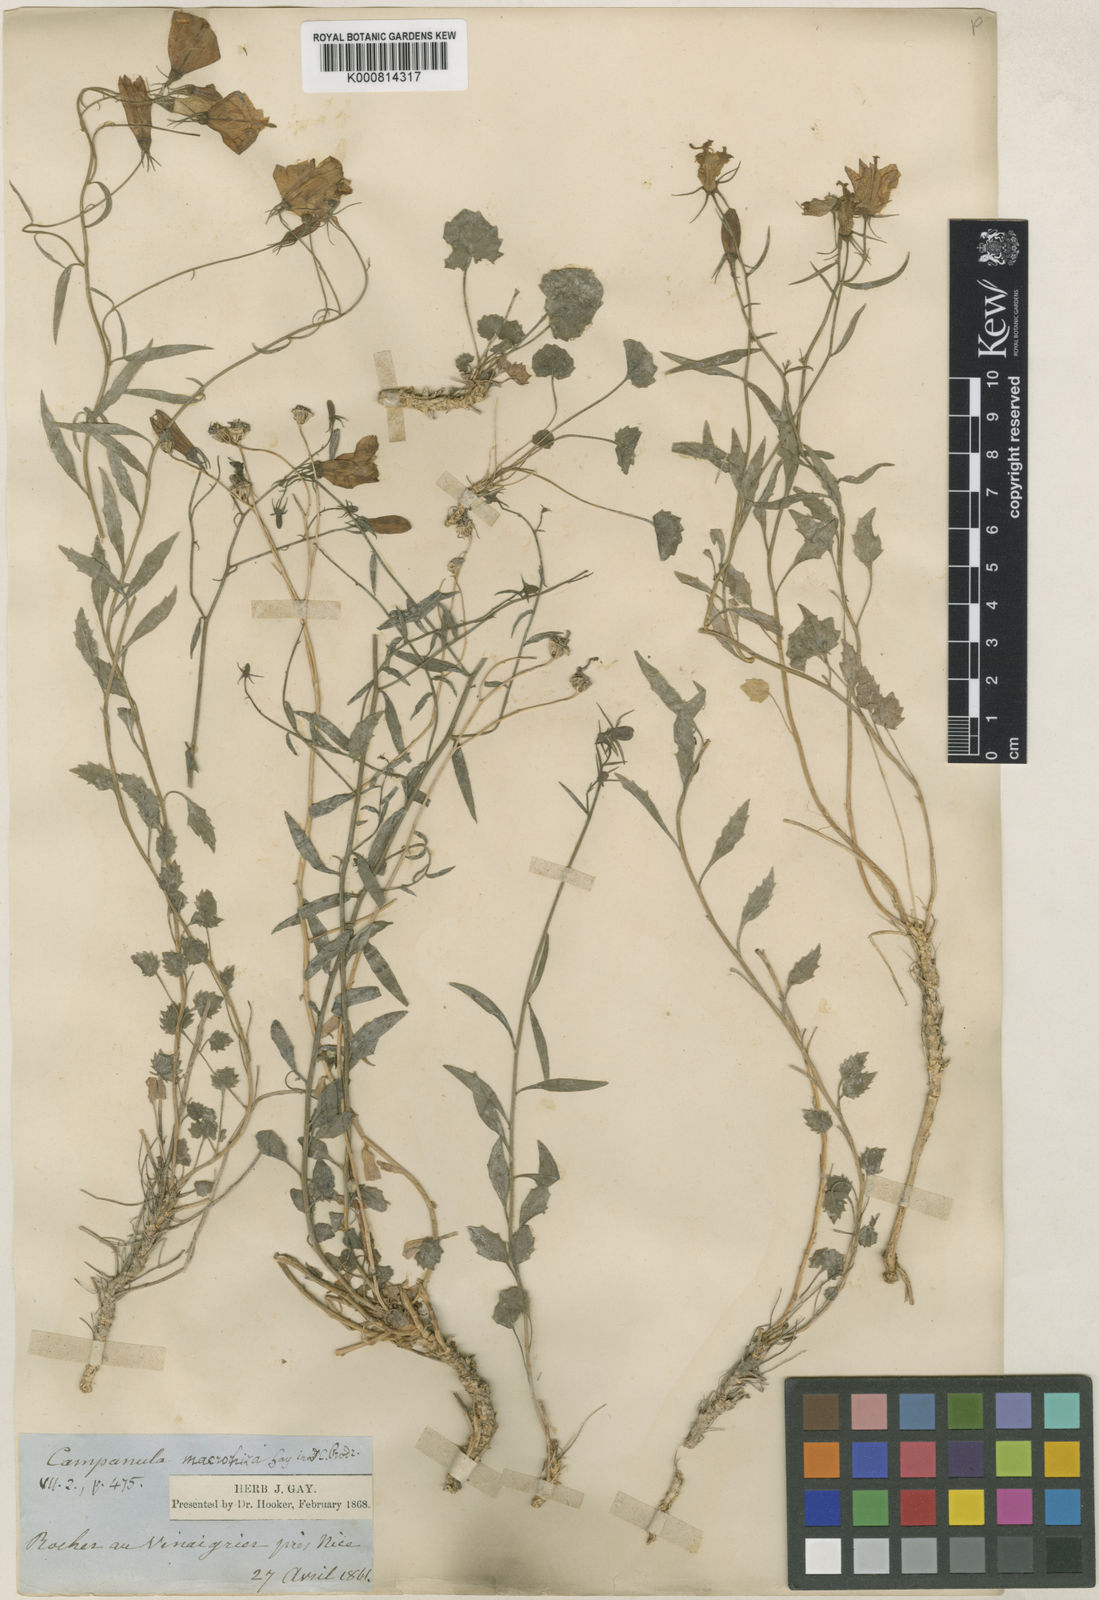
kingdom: Plantae
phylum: Tracheophyta
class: Magnoliopsida
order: Asterales
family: Campanulaceae
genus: Campanula
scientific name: Campanula macrorhiza
